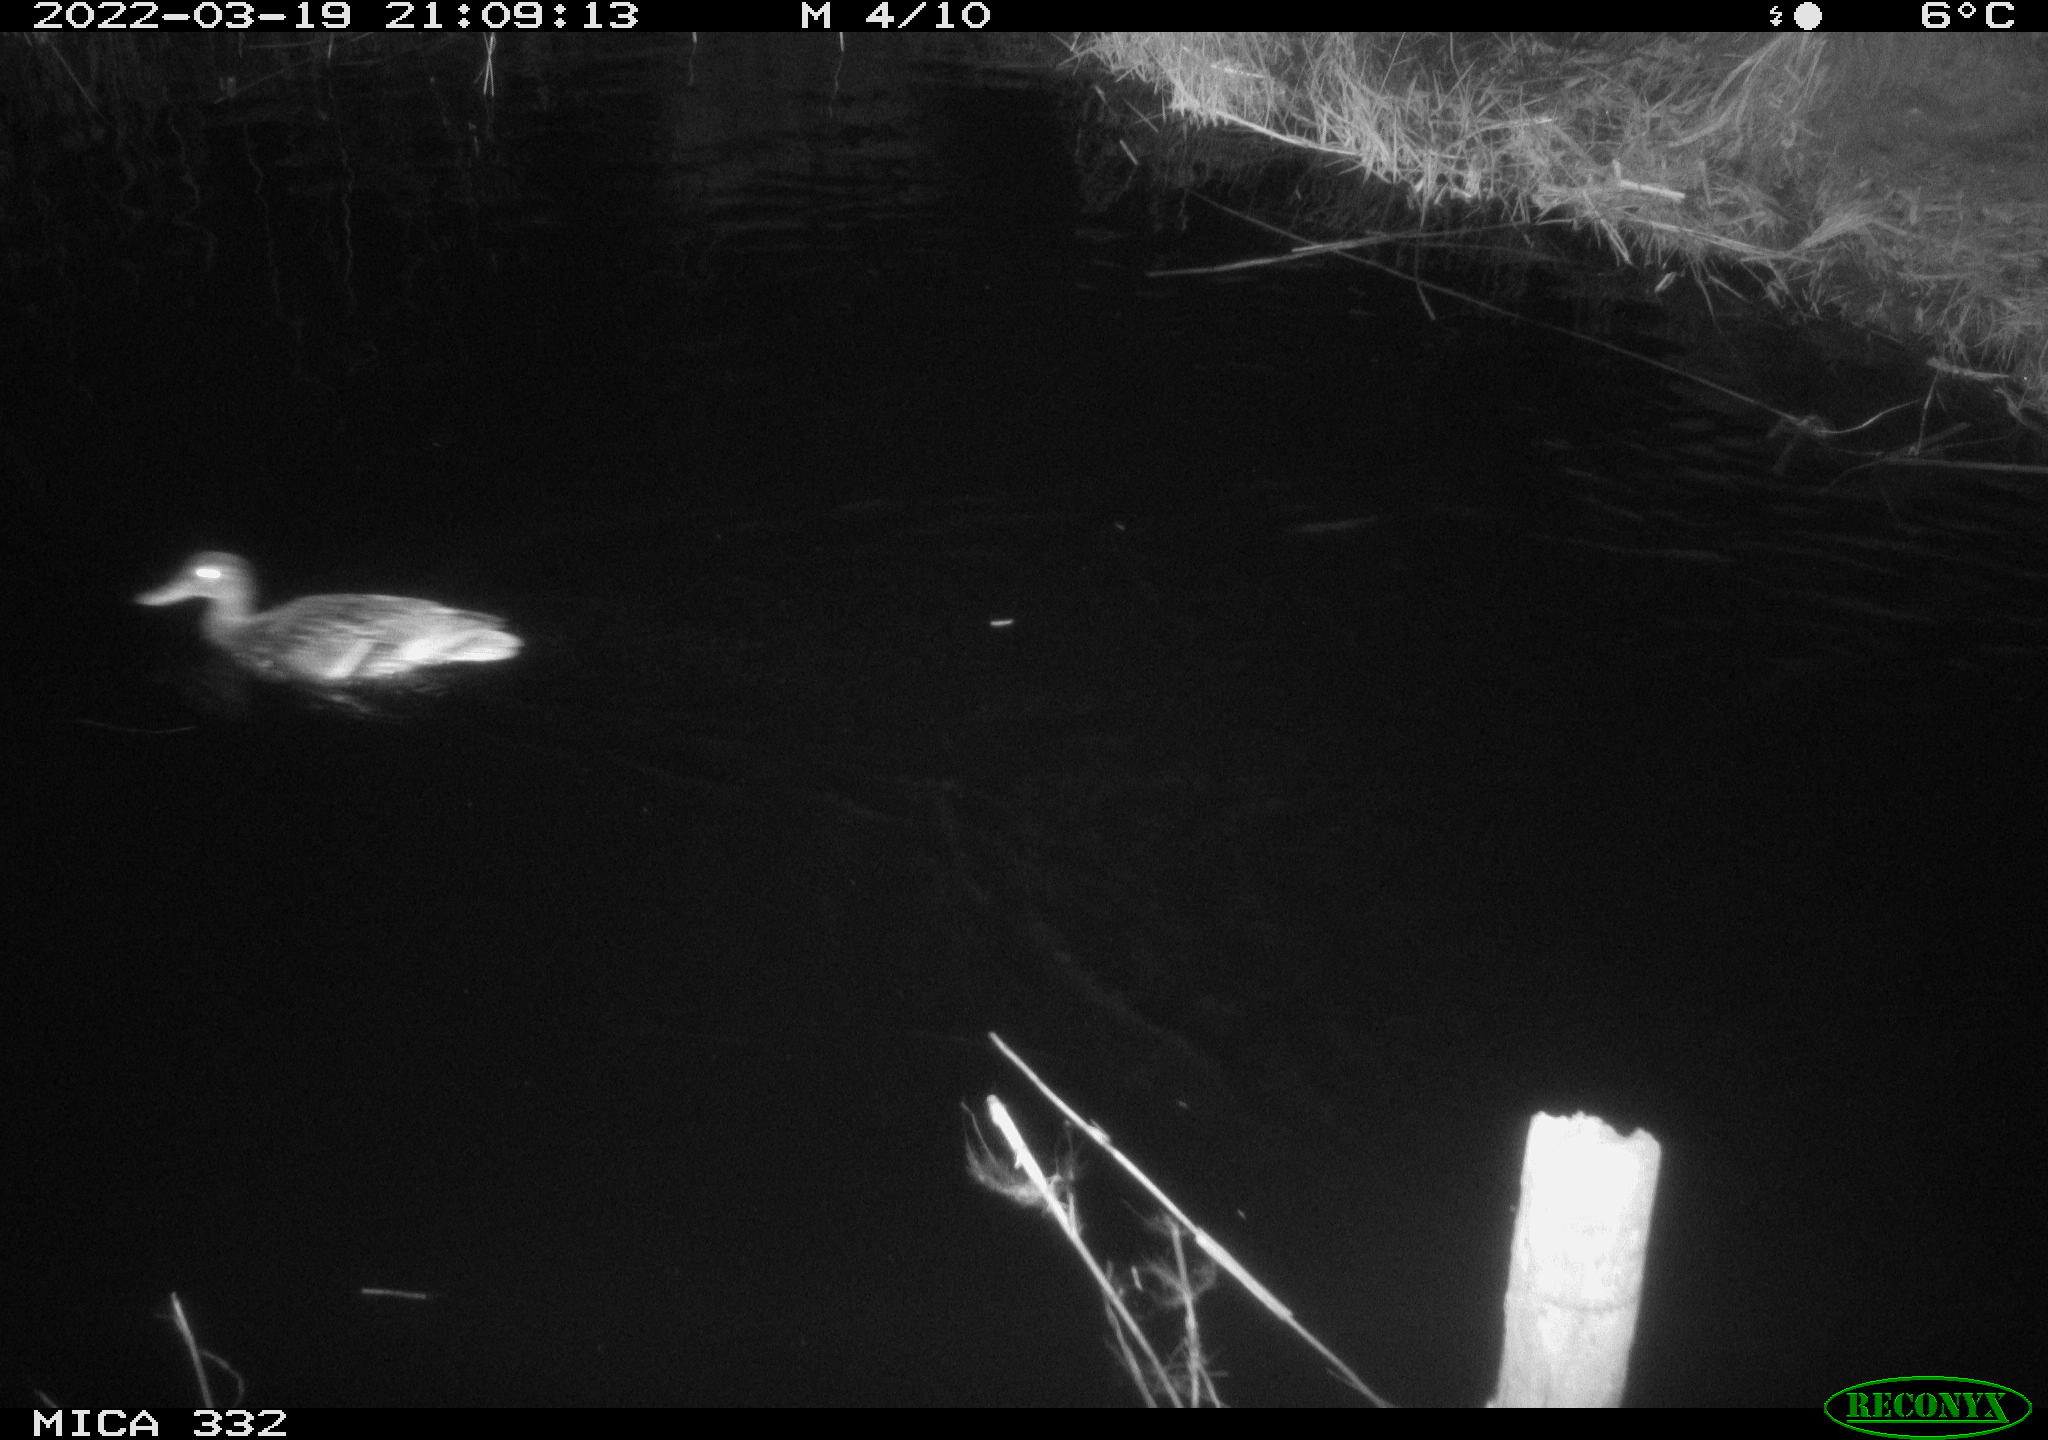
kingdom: Animalia
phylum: Chordata
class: Aves
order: Anseriformes
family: Anatidae
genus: Anas
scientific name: Anas platyrhynchos
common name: Mallard
